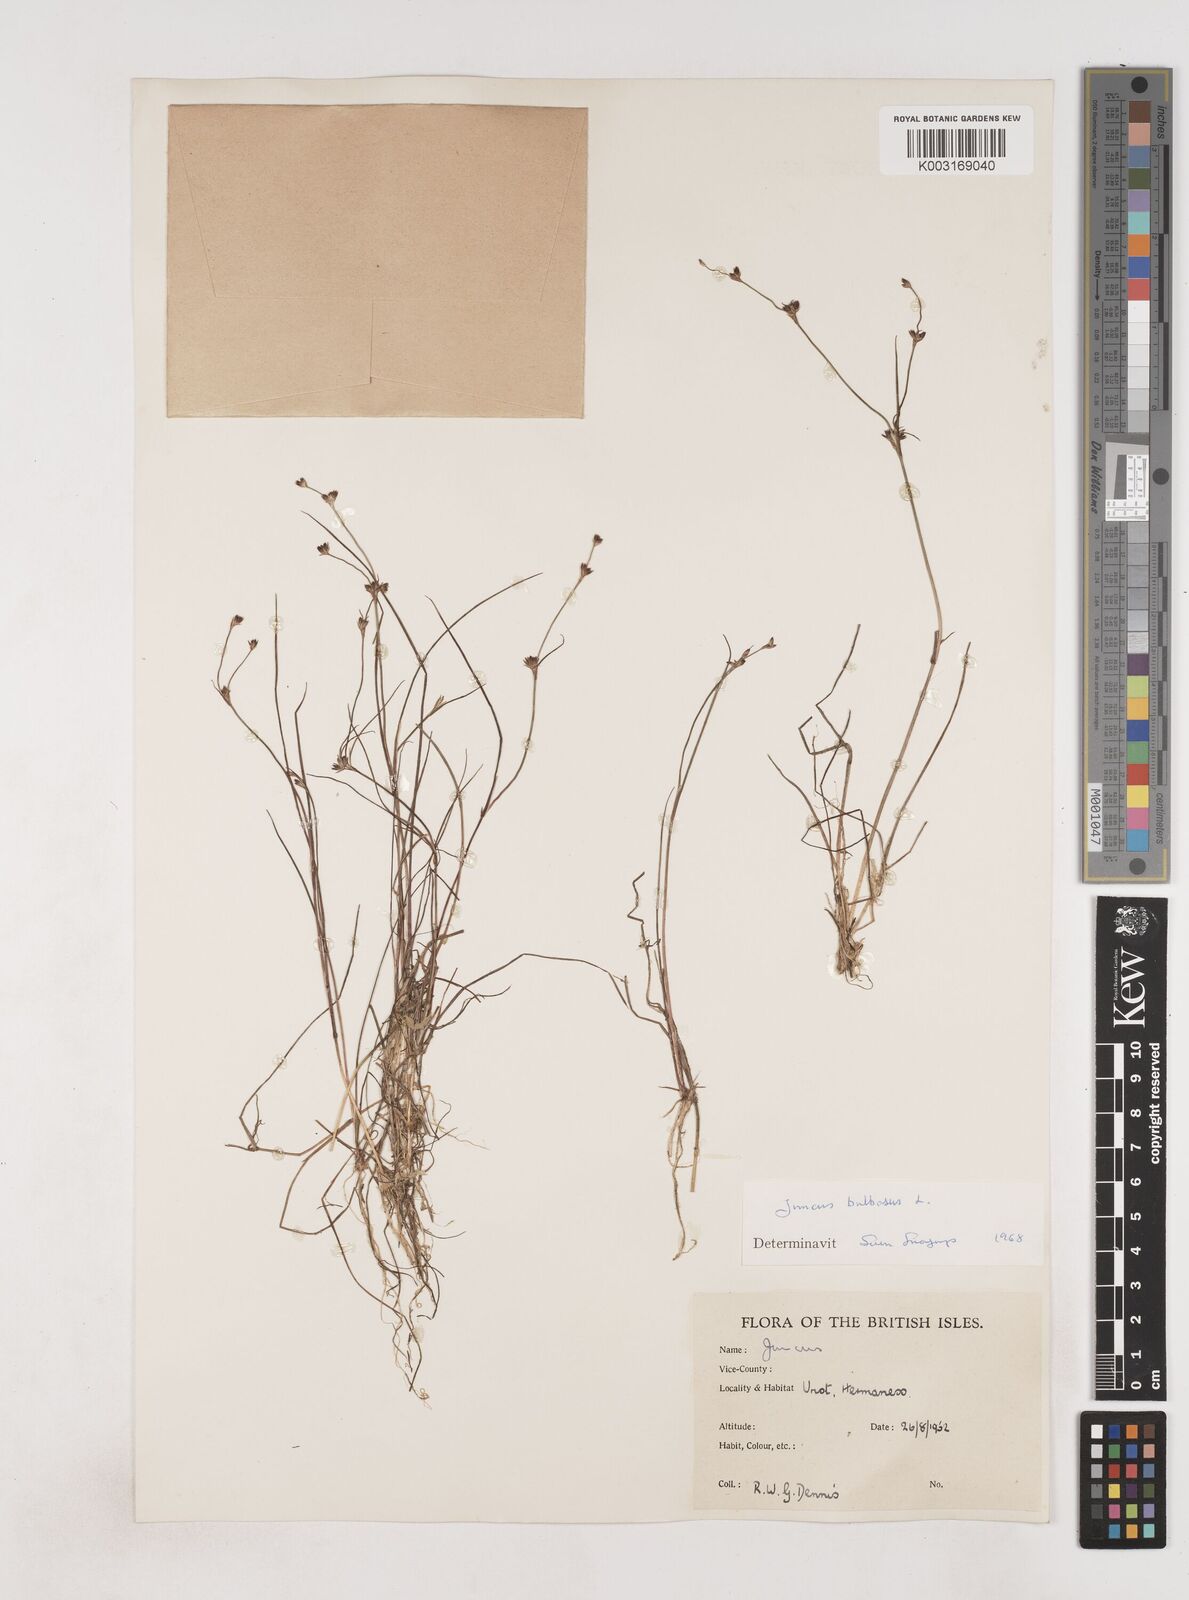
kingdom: Plantae
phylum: Tracheophyta
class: Liliopsida
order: Poales
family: Juncaceae
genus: Juncus
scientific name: Juncus bulbosus
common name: Bulbous rush
